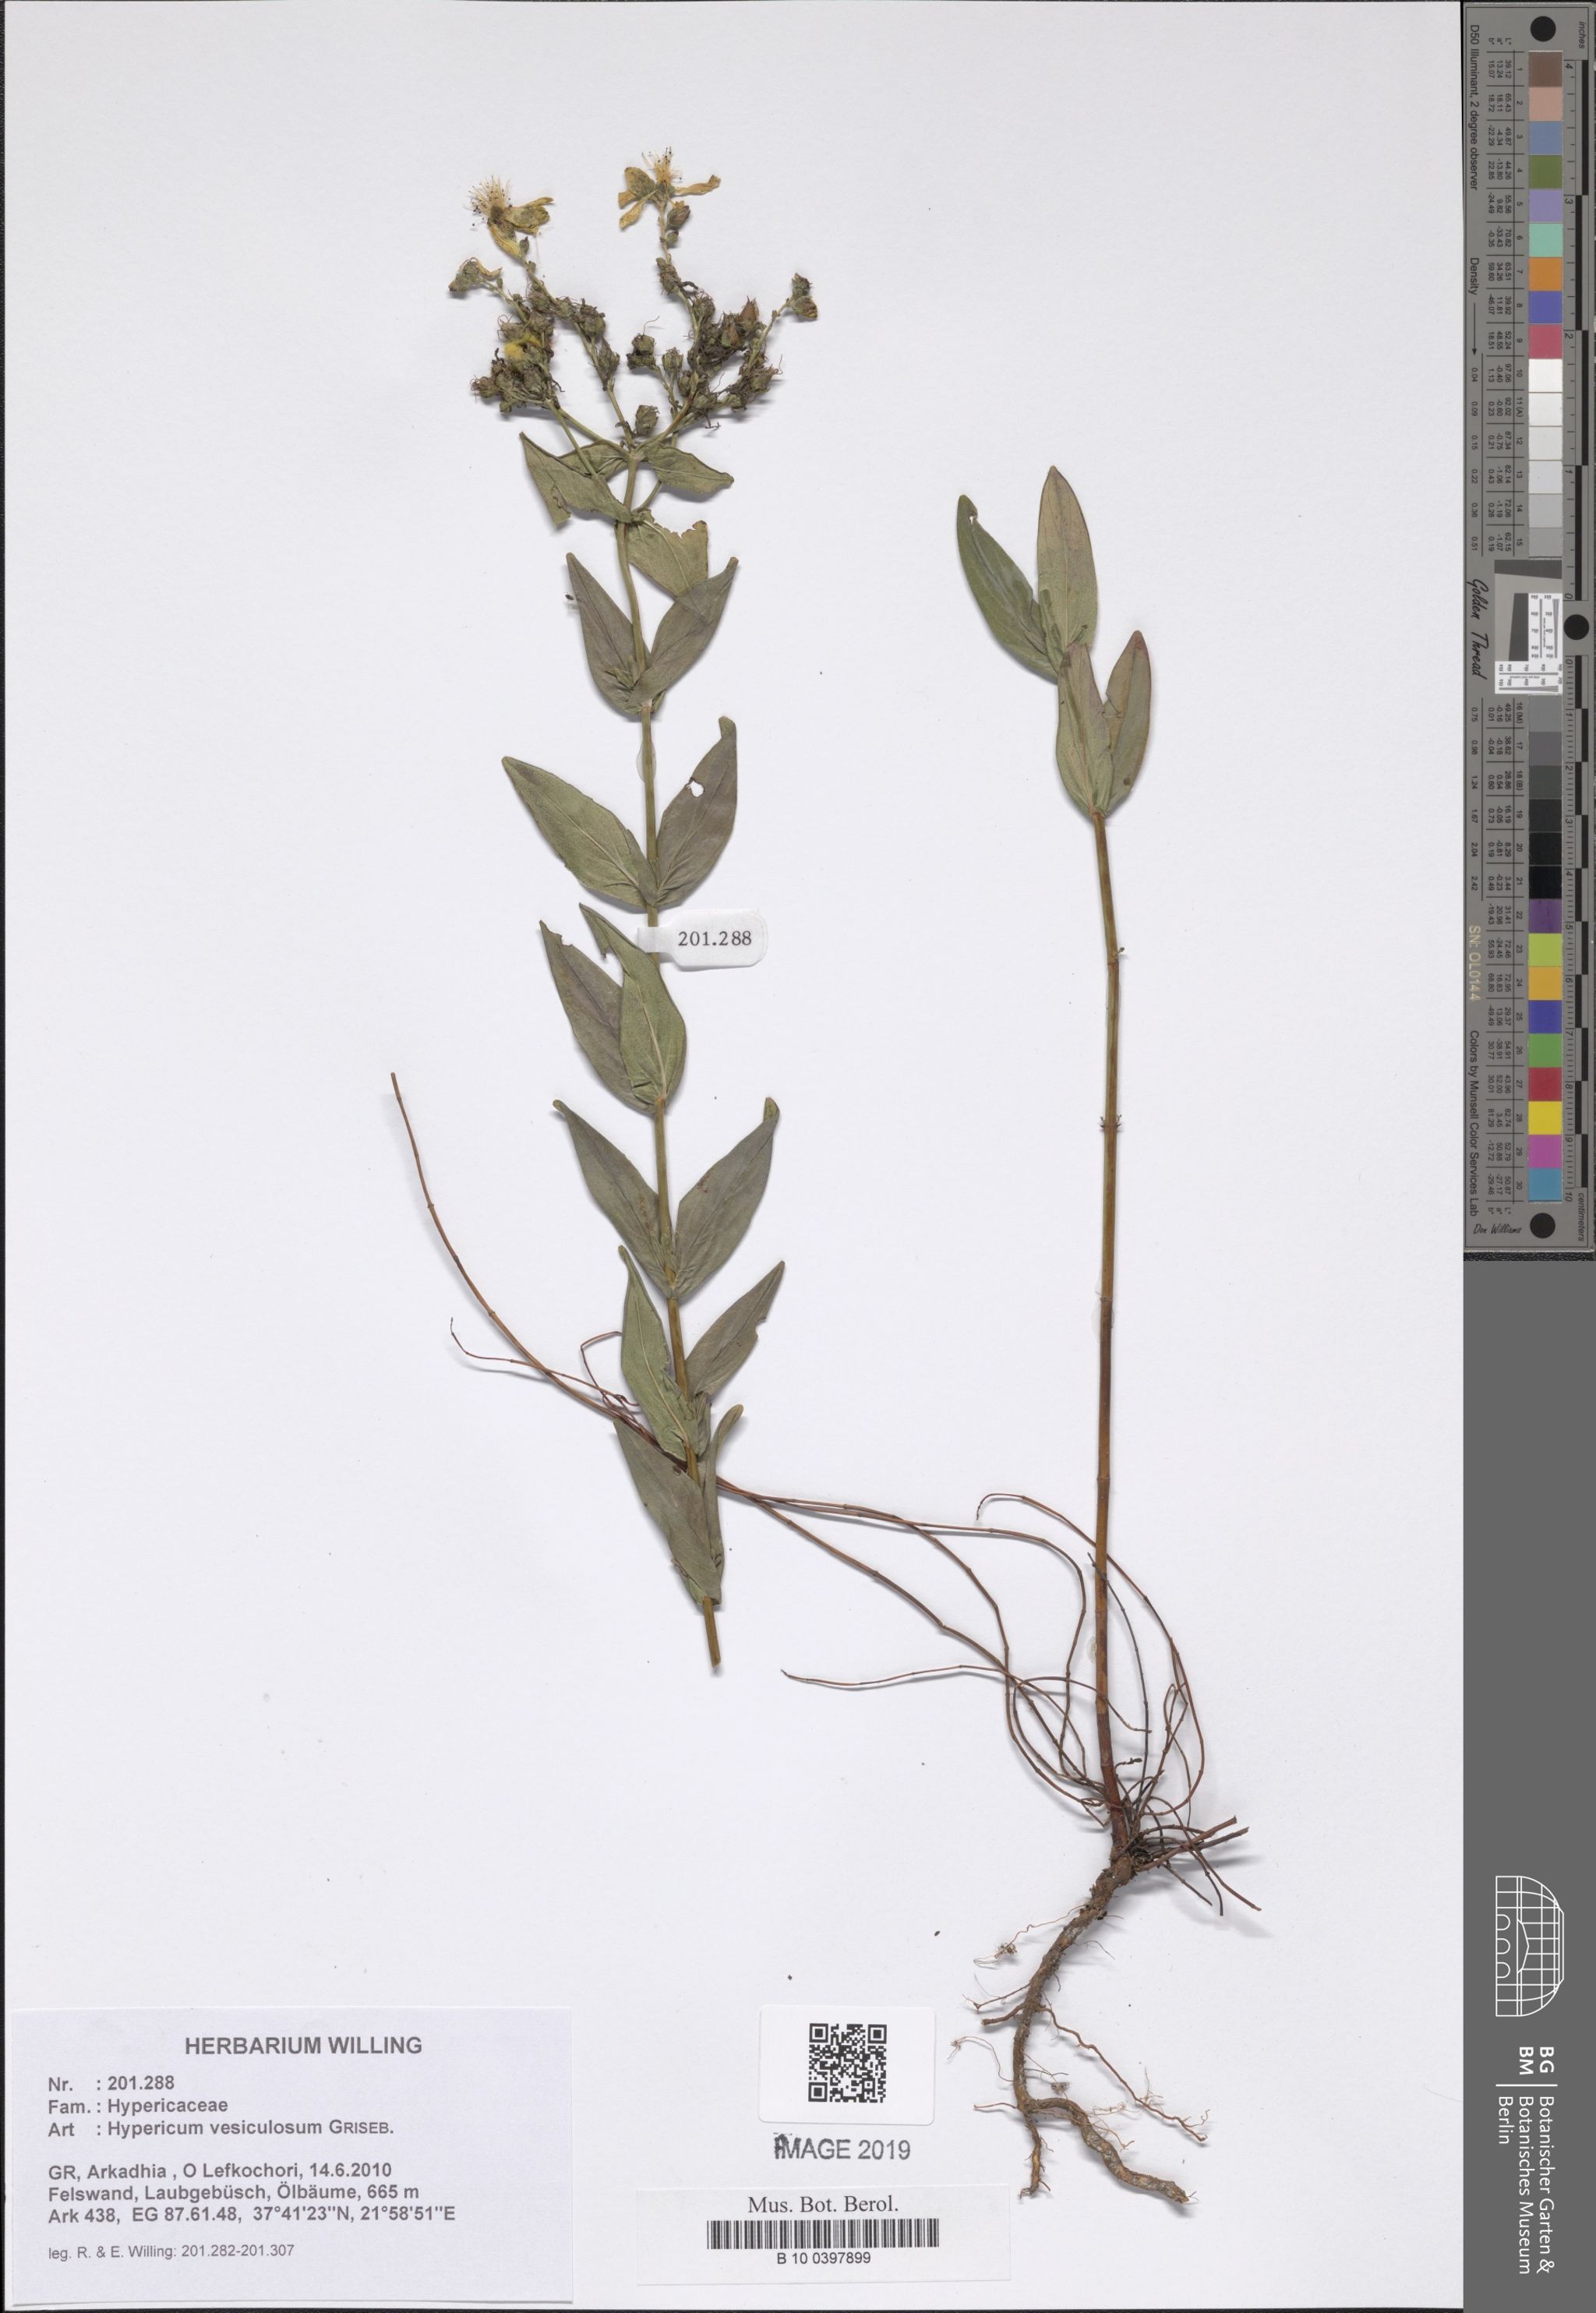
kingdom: Plantae
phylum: Tracheophyta
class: Magnoliopsida
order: Malpighiales
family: Hypericaceae
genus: Hypericum
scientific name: Hypericum vesiculosum
